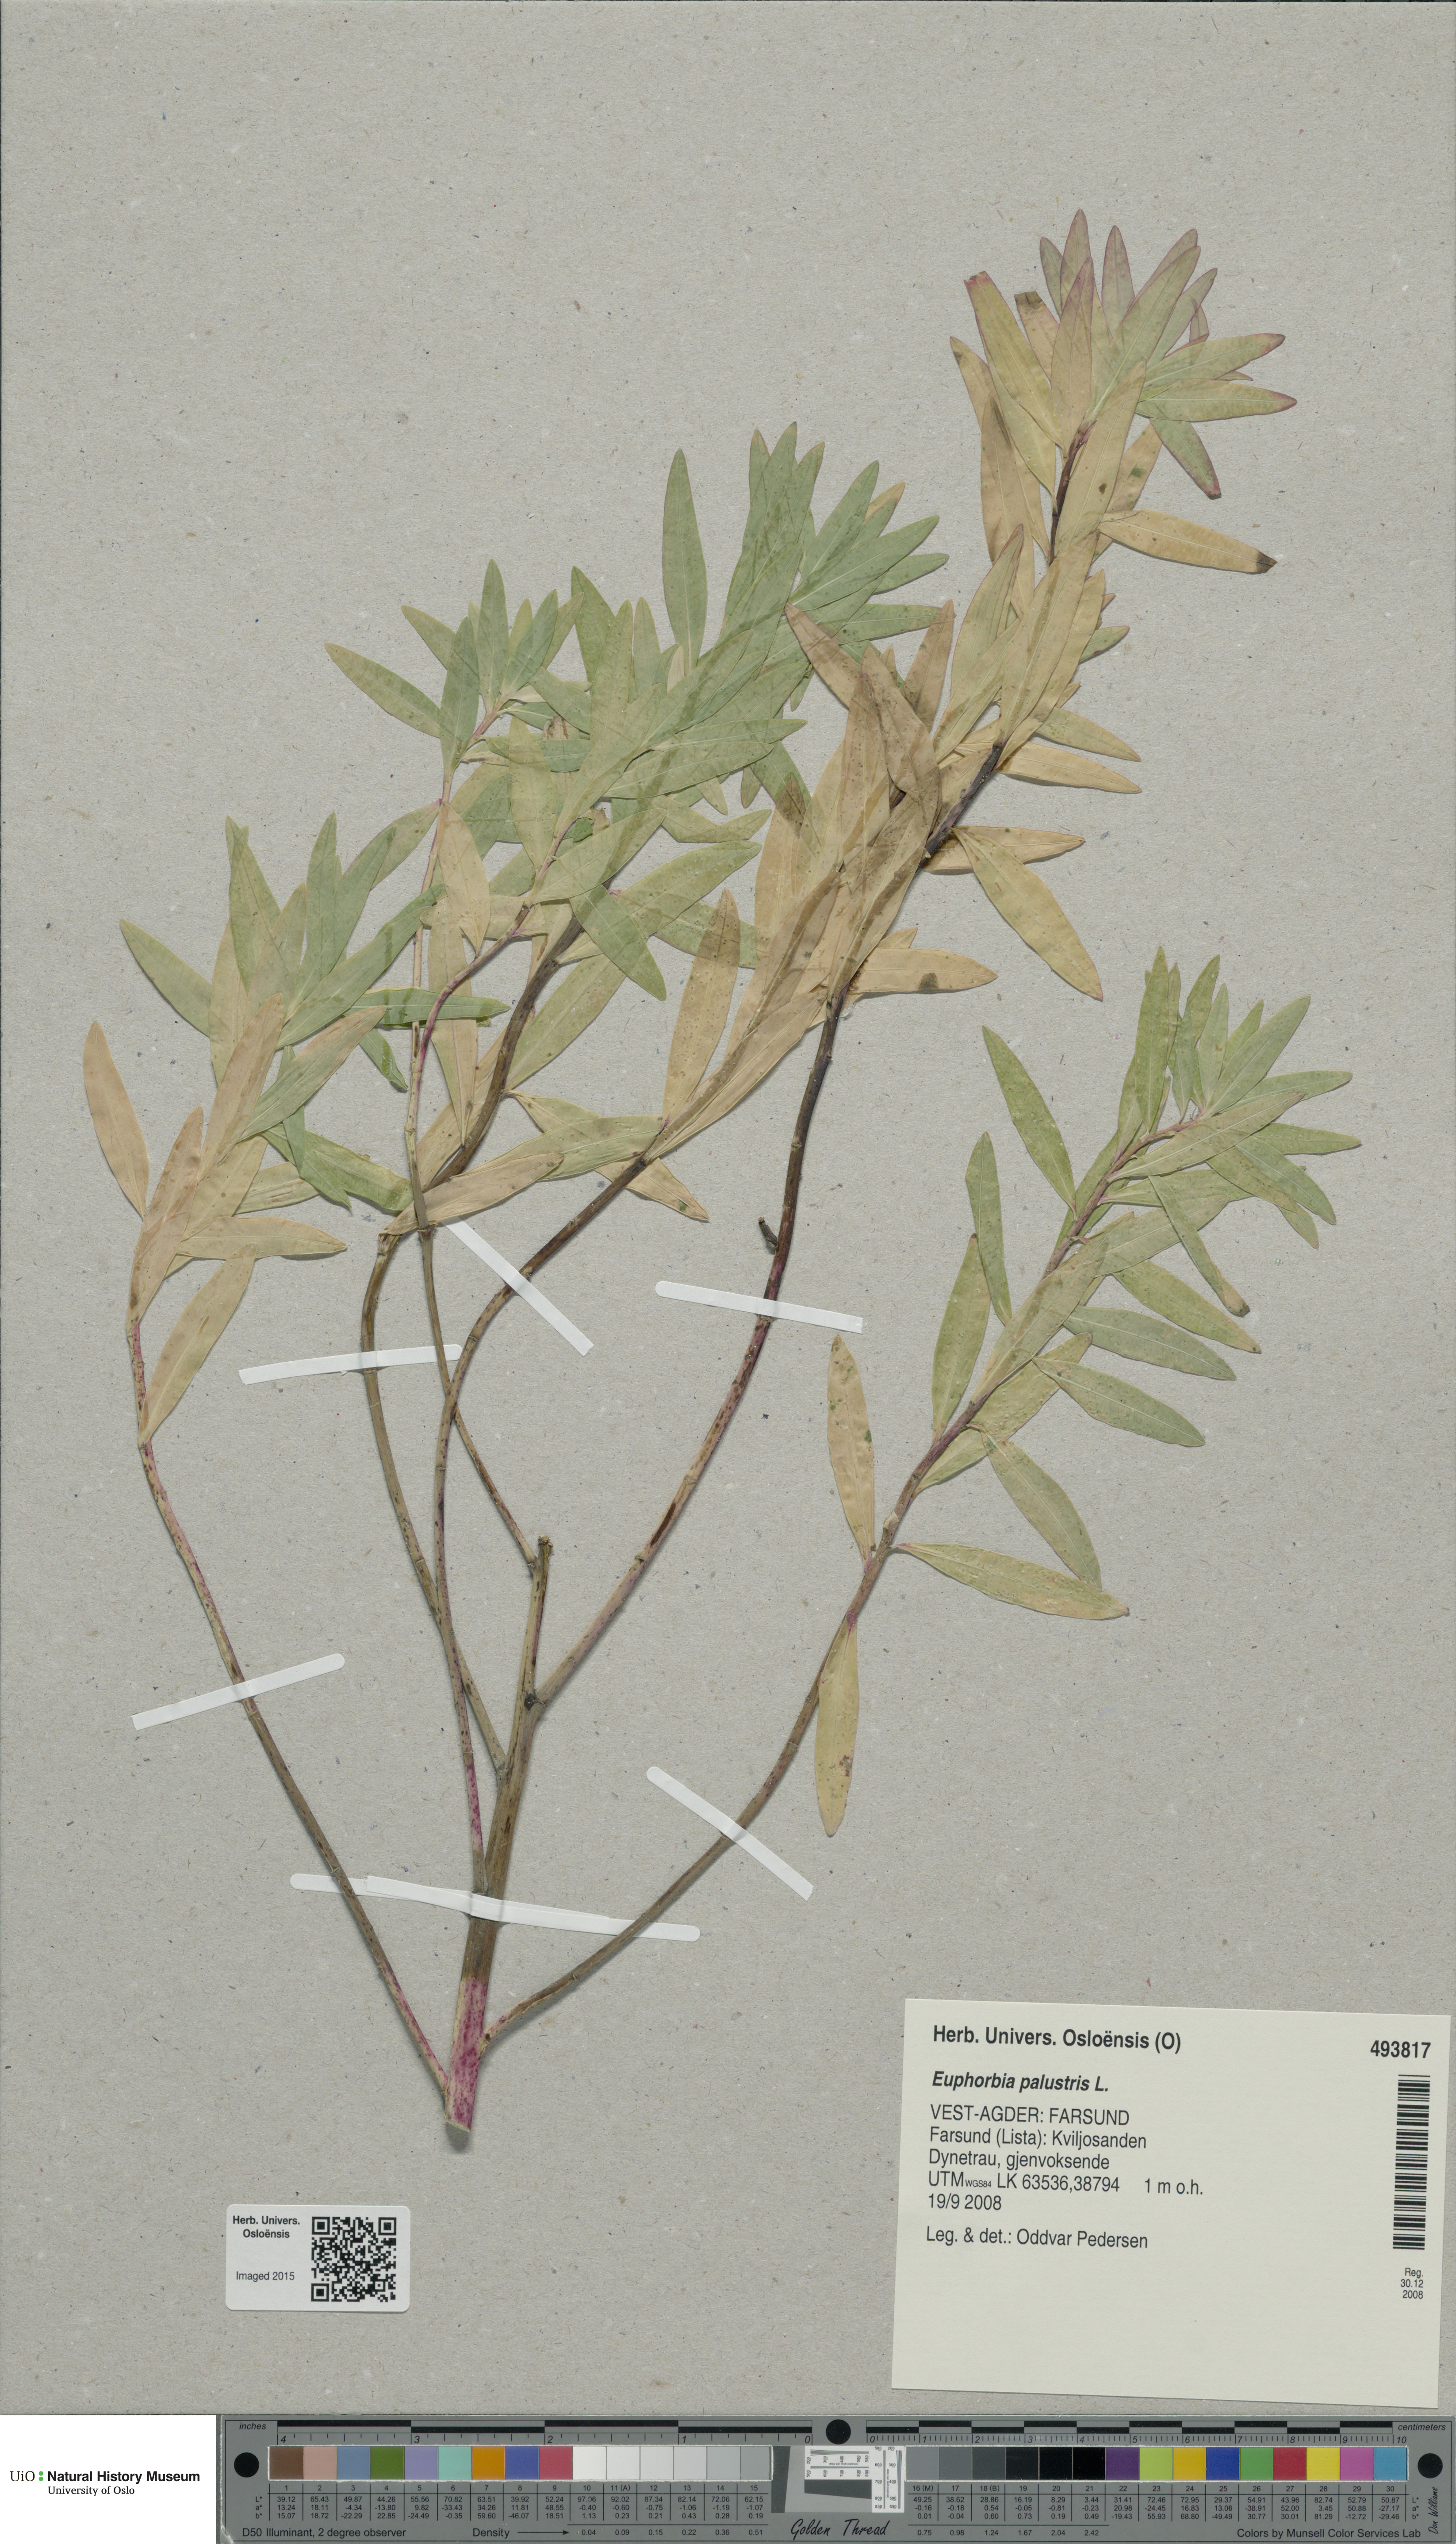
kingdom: Plantae
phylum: Tracheophyta
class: Magnoliopsida
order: Malpighiales
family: Euphorbiaceae
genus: Euphorbia
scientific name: Euphorbia palustris
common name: Marsh spurge
